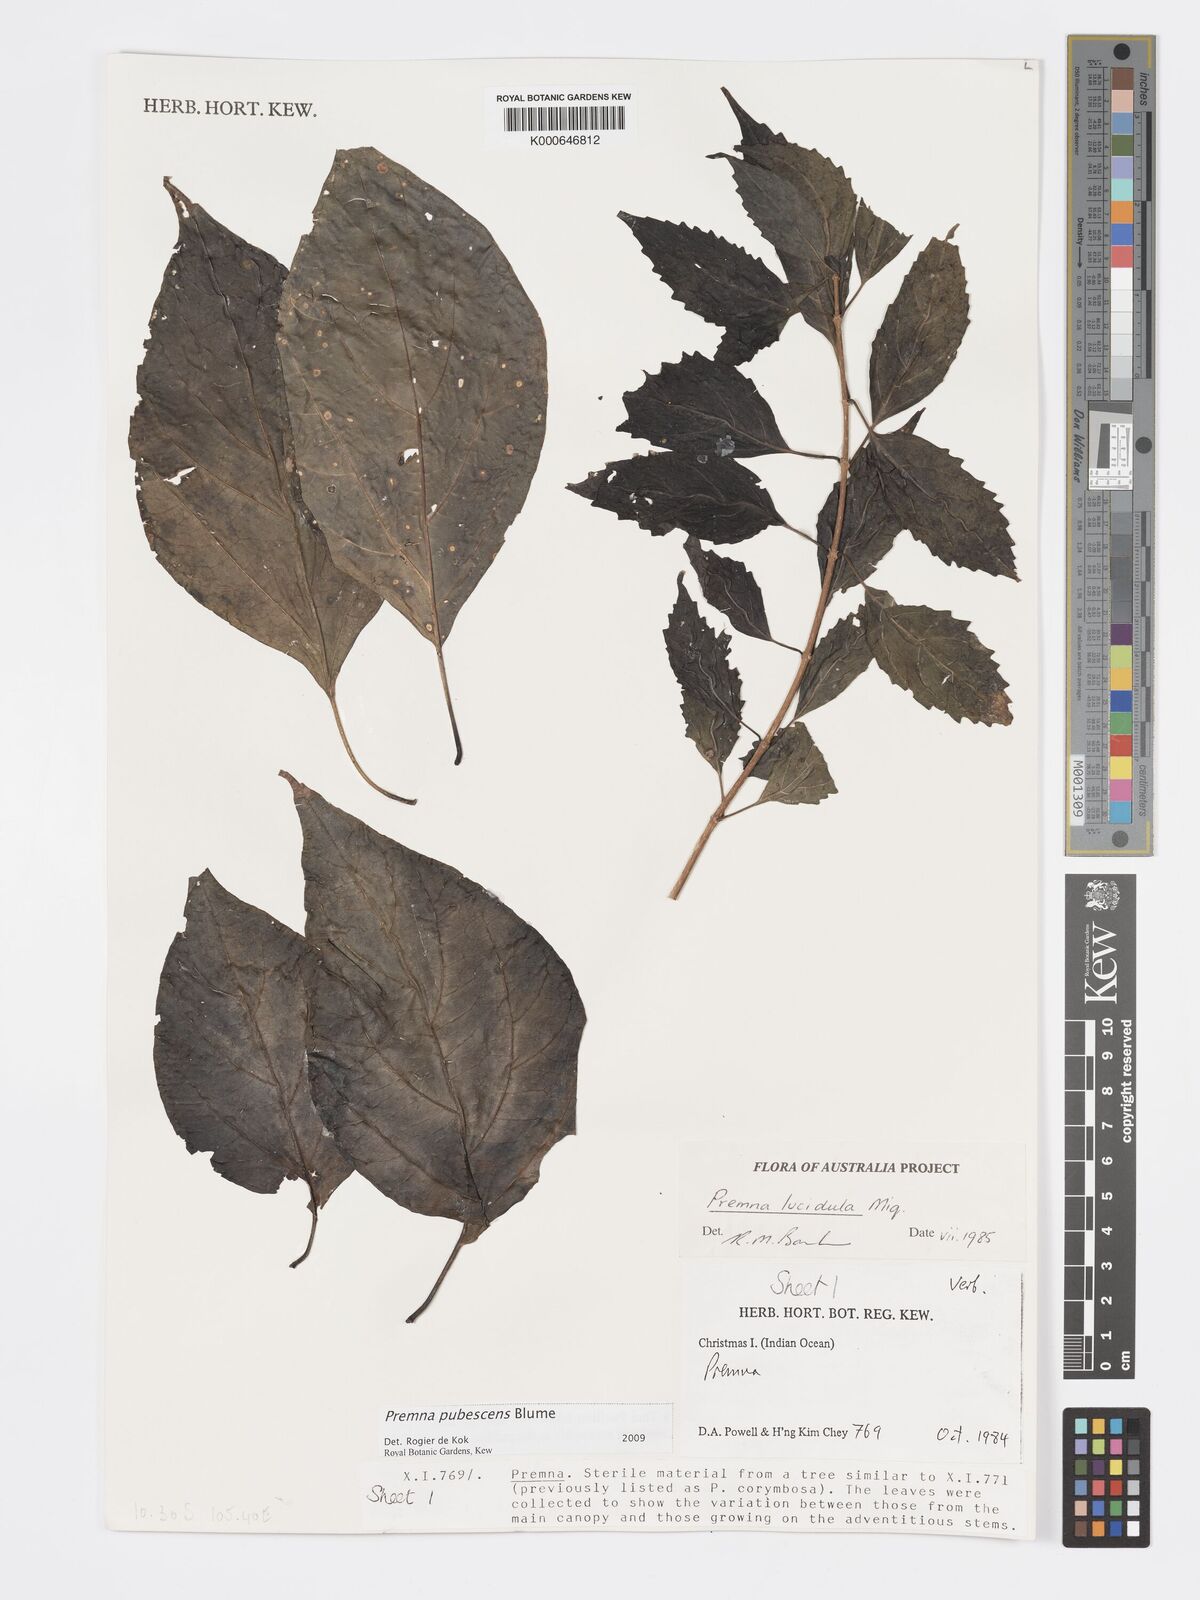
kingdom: Plantae
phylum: Tracheophyta
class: Magnoliopsida
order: Lamiales
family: Lamiaceae
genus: Premna
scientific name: Premna
